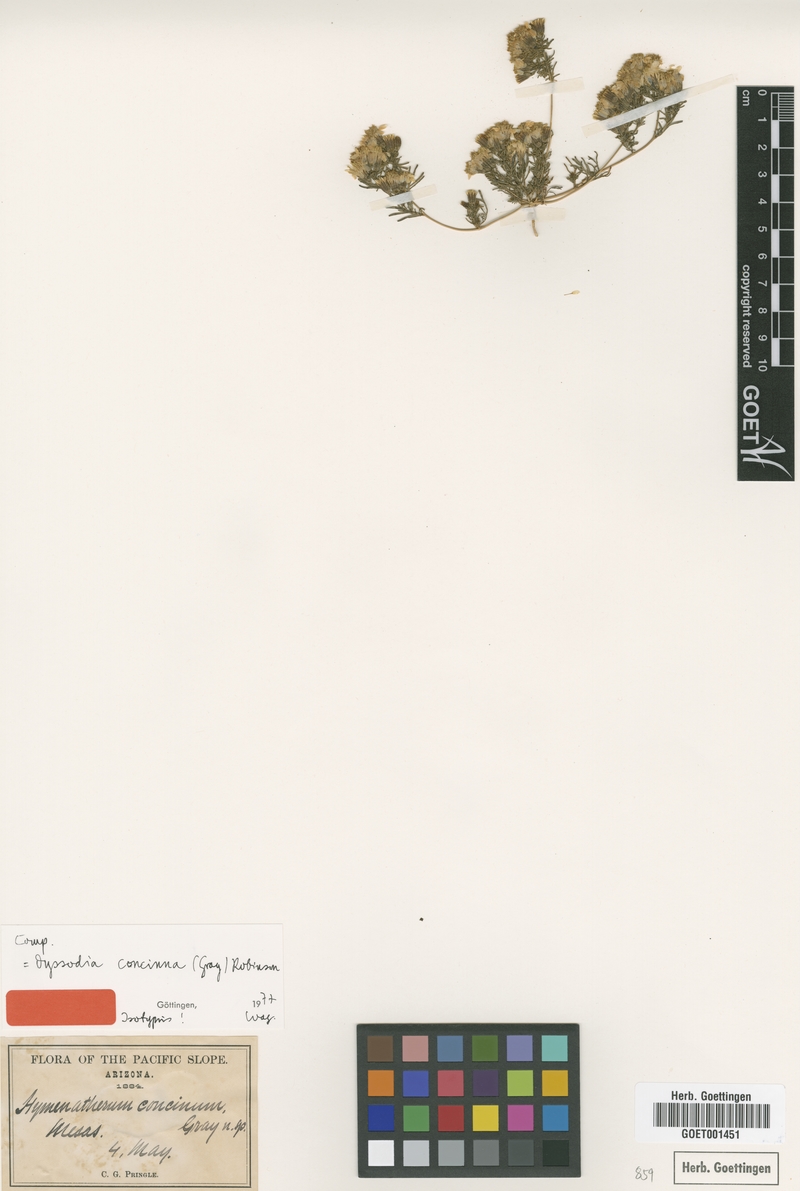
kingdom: Plantae
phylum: Tracheophyta
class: Magnoliopsida
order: Asterales
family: Asteraceae
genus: Thymophylla
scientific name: Thymophylla concinna
